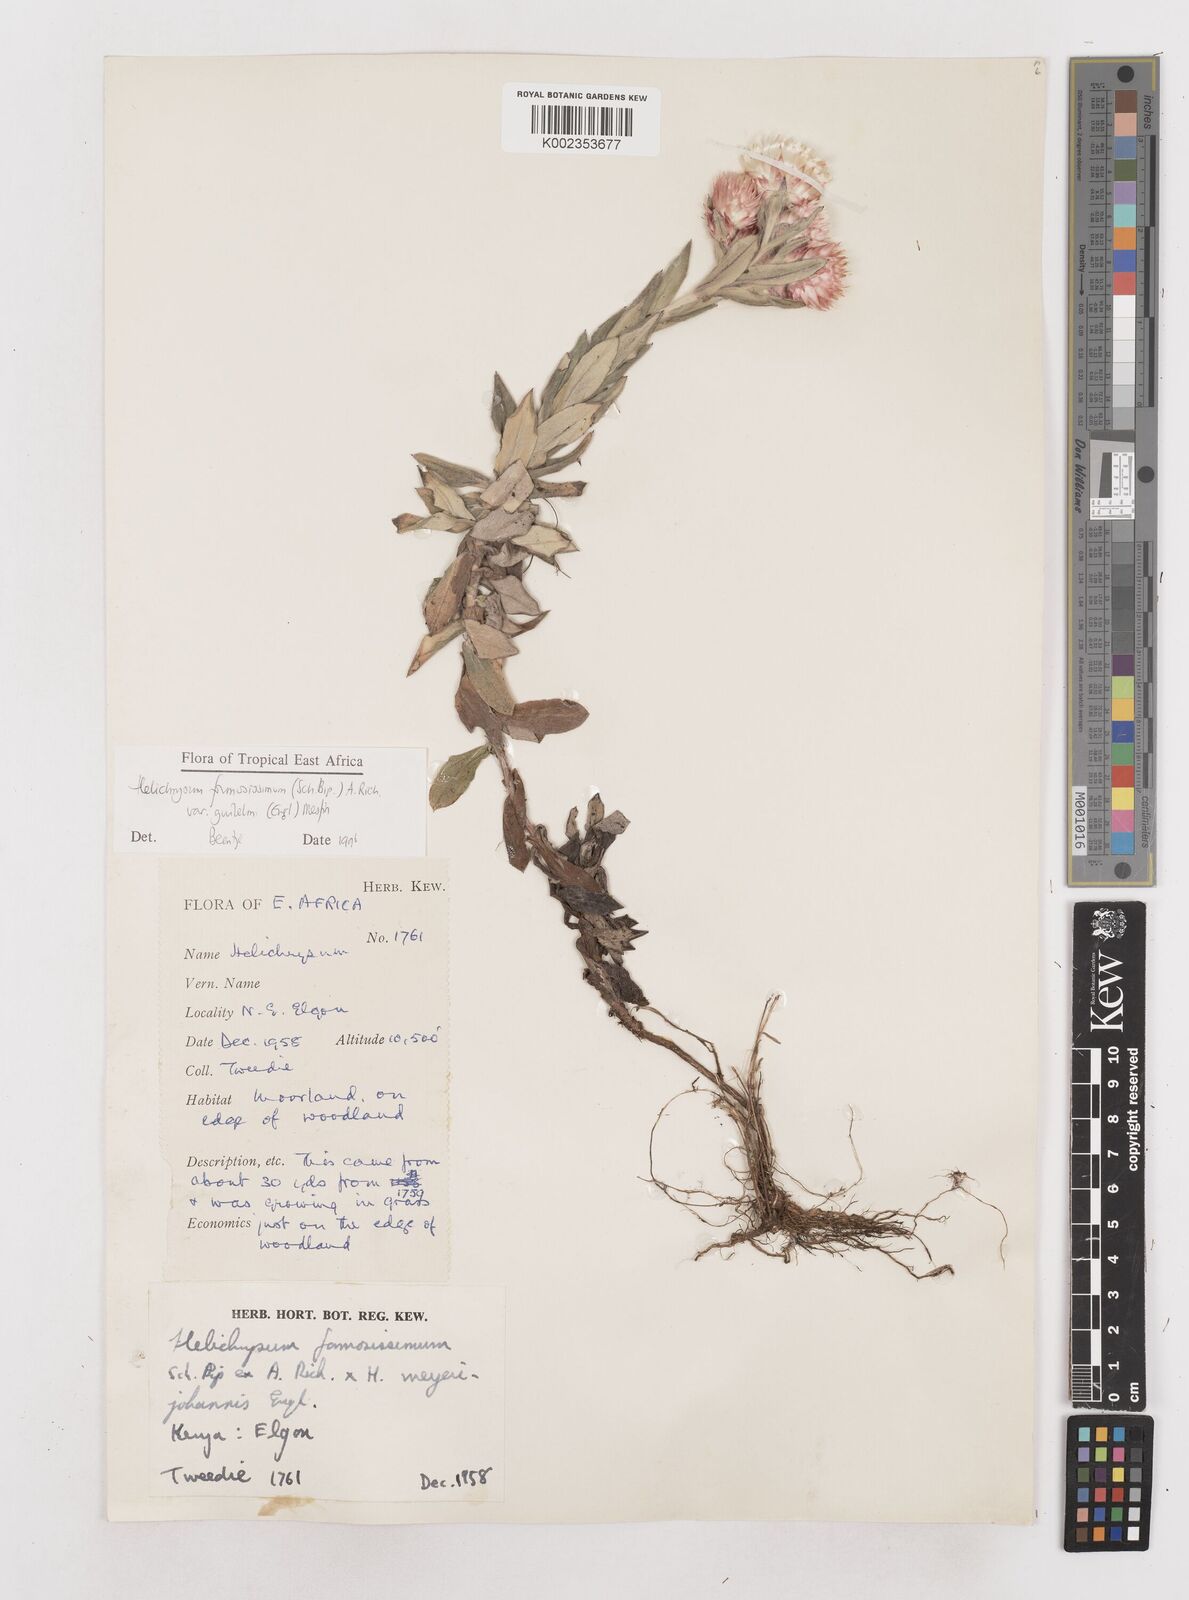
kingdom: Plantae
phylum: Tracheophyta
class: Magnoliopsida
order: Asterales
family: Asteraceae
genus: Helichrysum
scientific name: Helichrysum formosissimum
